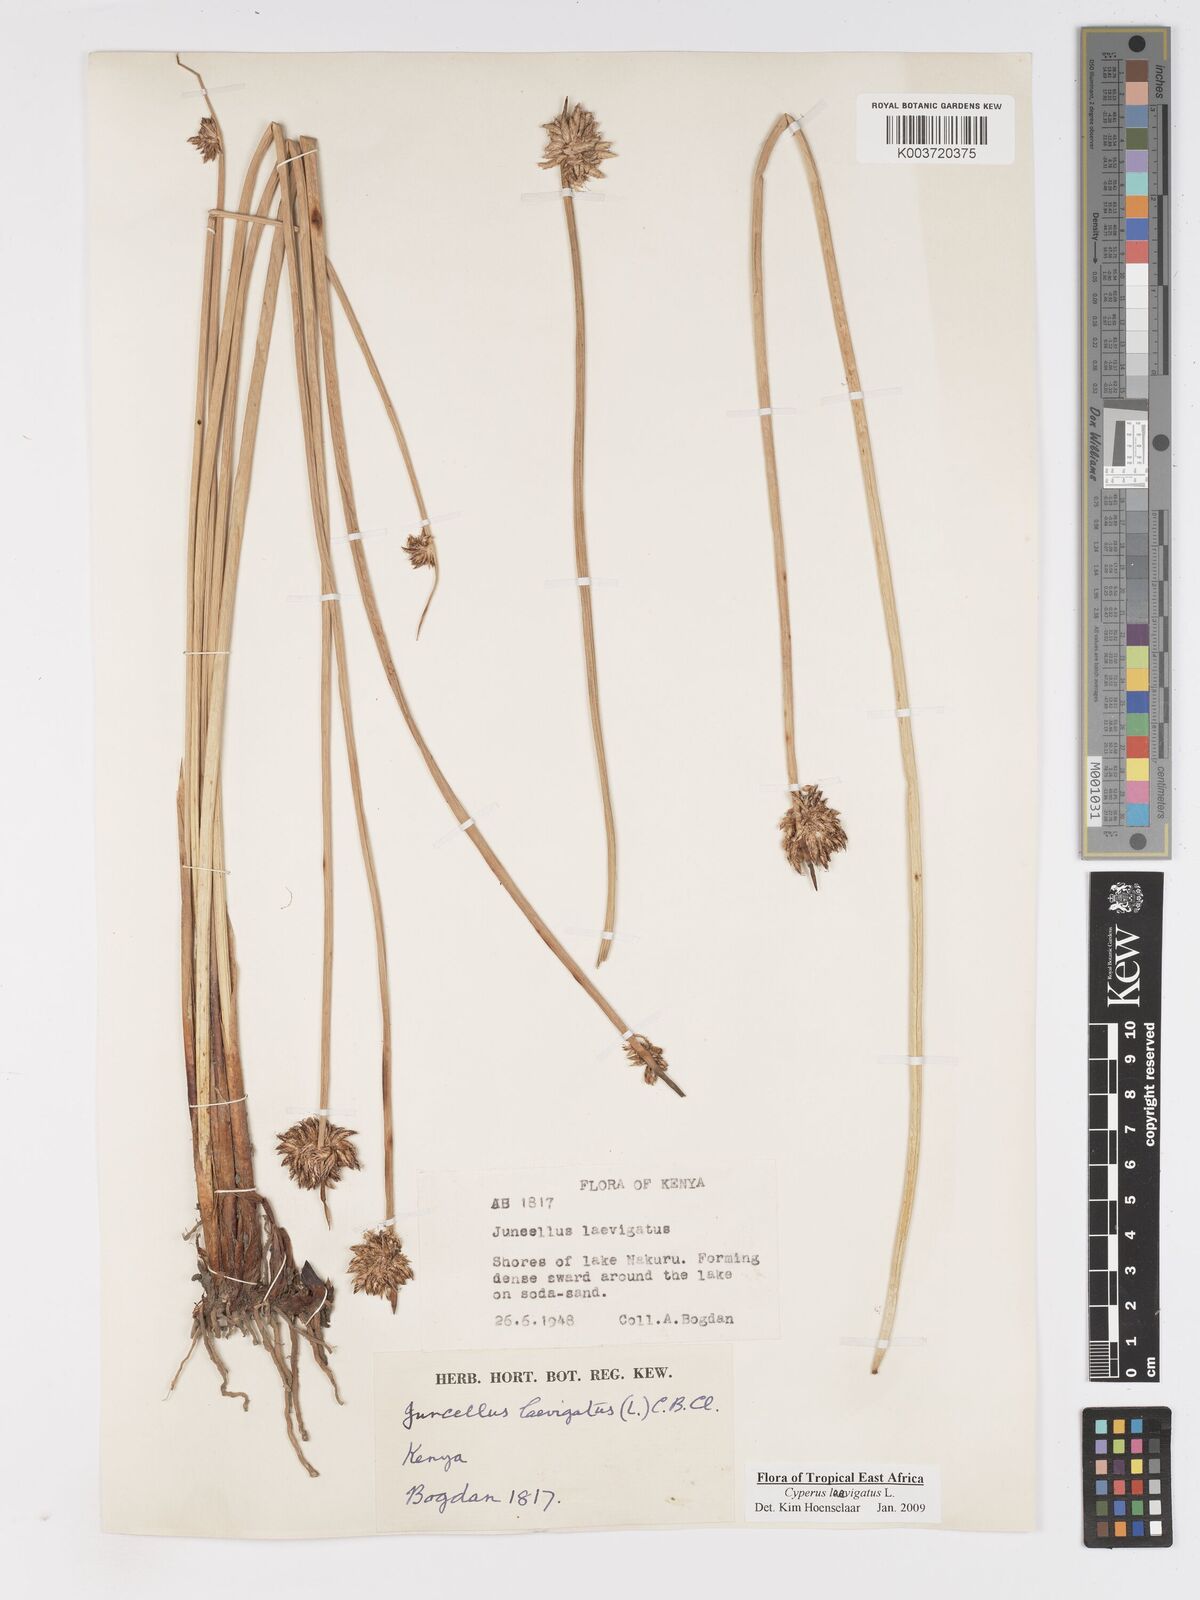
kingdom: Plantae
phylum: Tracheophyta
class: Liliopsida
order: Poales
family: Cyperaceae
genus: Cyperus
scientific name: Cyperus laevigatus
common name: Smooth flat sedge
